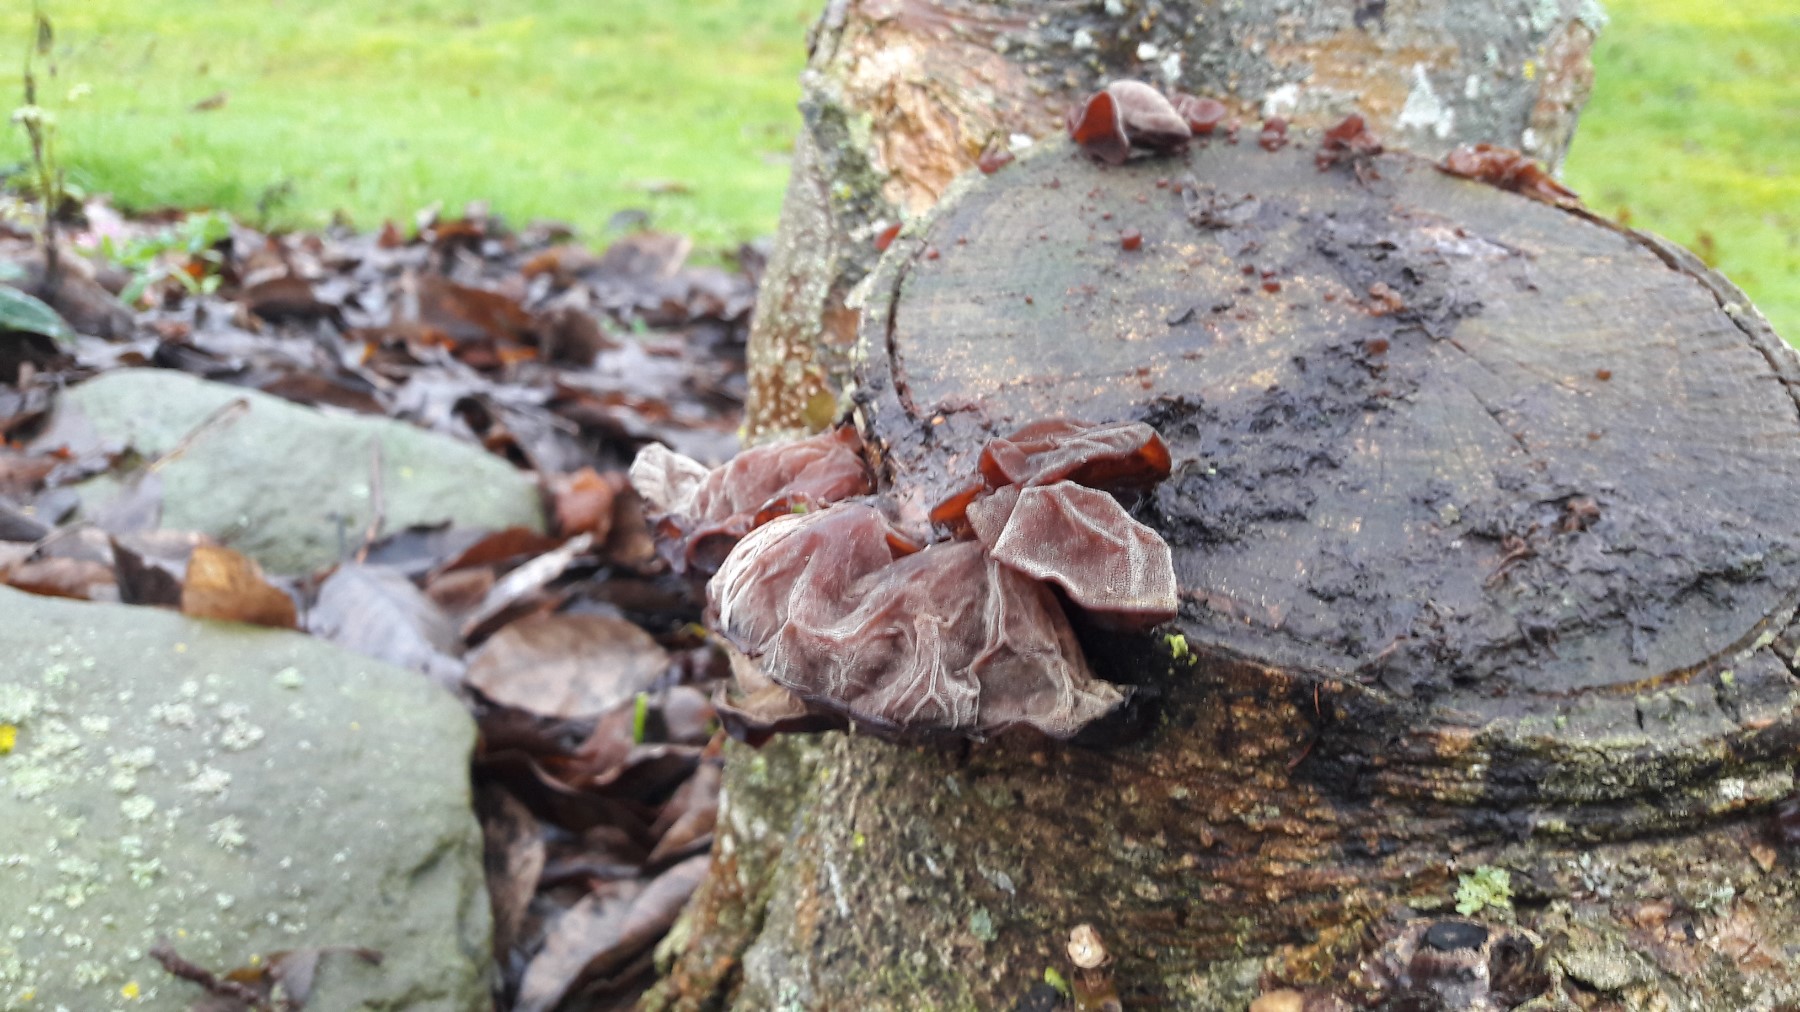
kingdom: Fungi
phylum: Basidiomycota
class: Agaricomycetes
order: Auriculariales
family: Auriculariaceae
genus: Auricularia
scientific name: Auricularia auricula-judae
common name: almindelig judasøre
